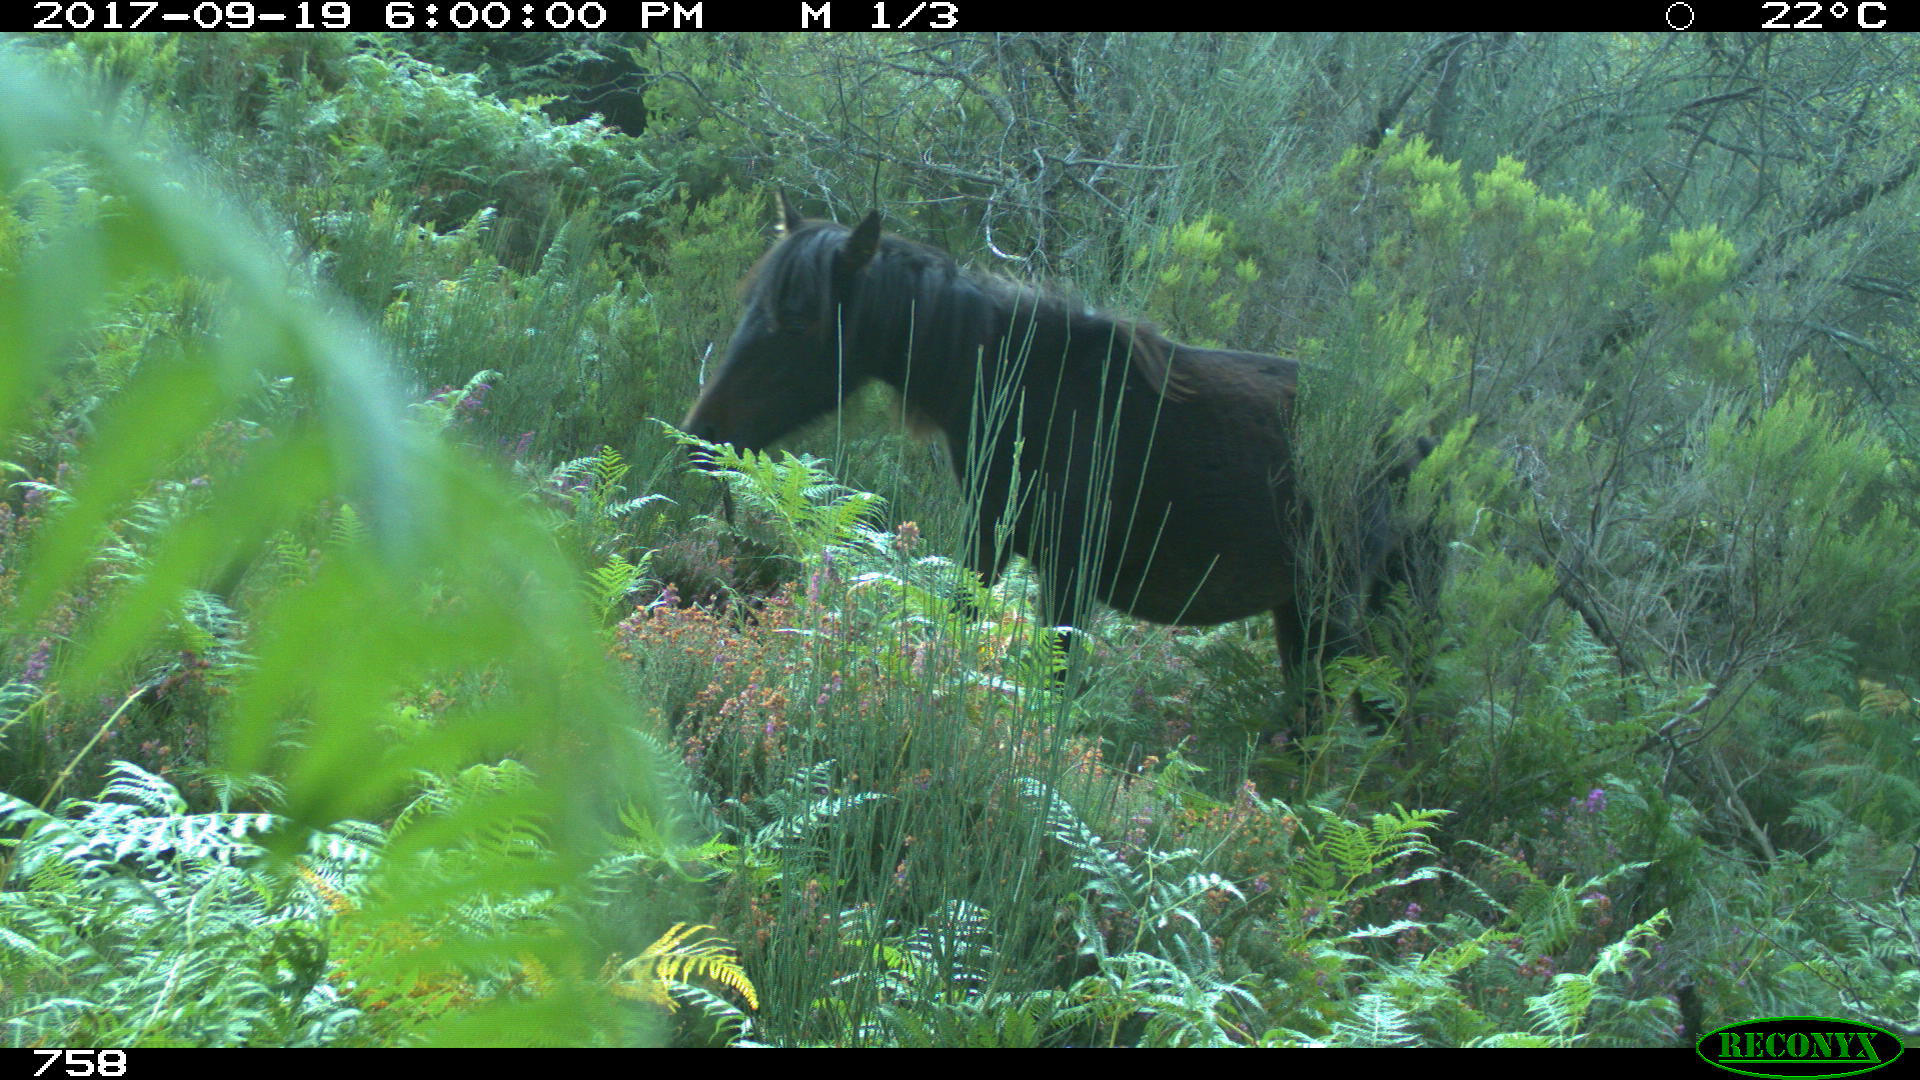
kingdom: Animalia
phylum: Chordata
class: Mammalia
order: Perissodactyla
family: Equidae
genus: Equus
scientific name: Equus caballus
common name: Horse
